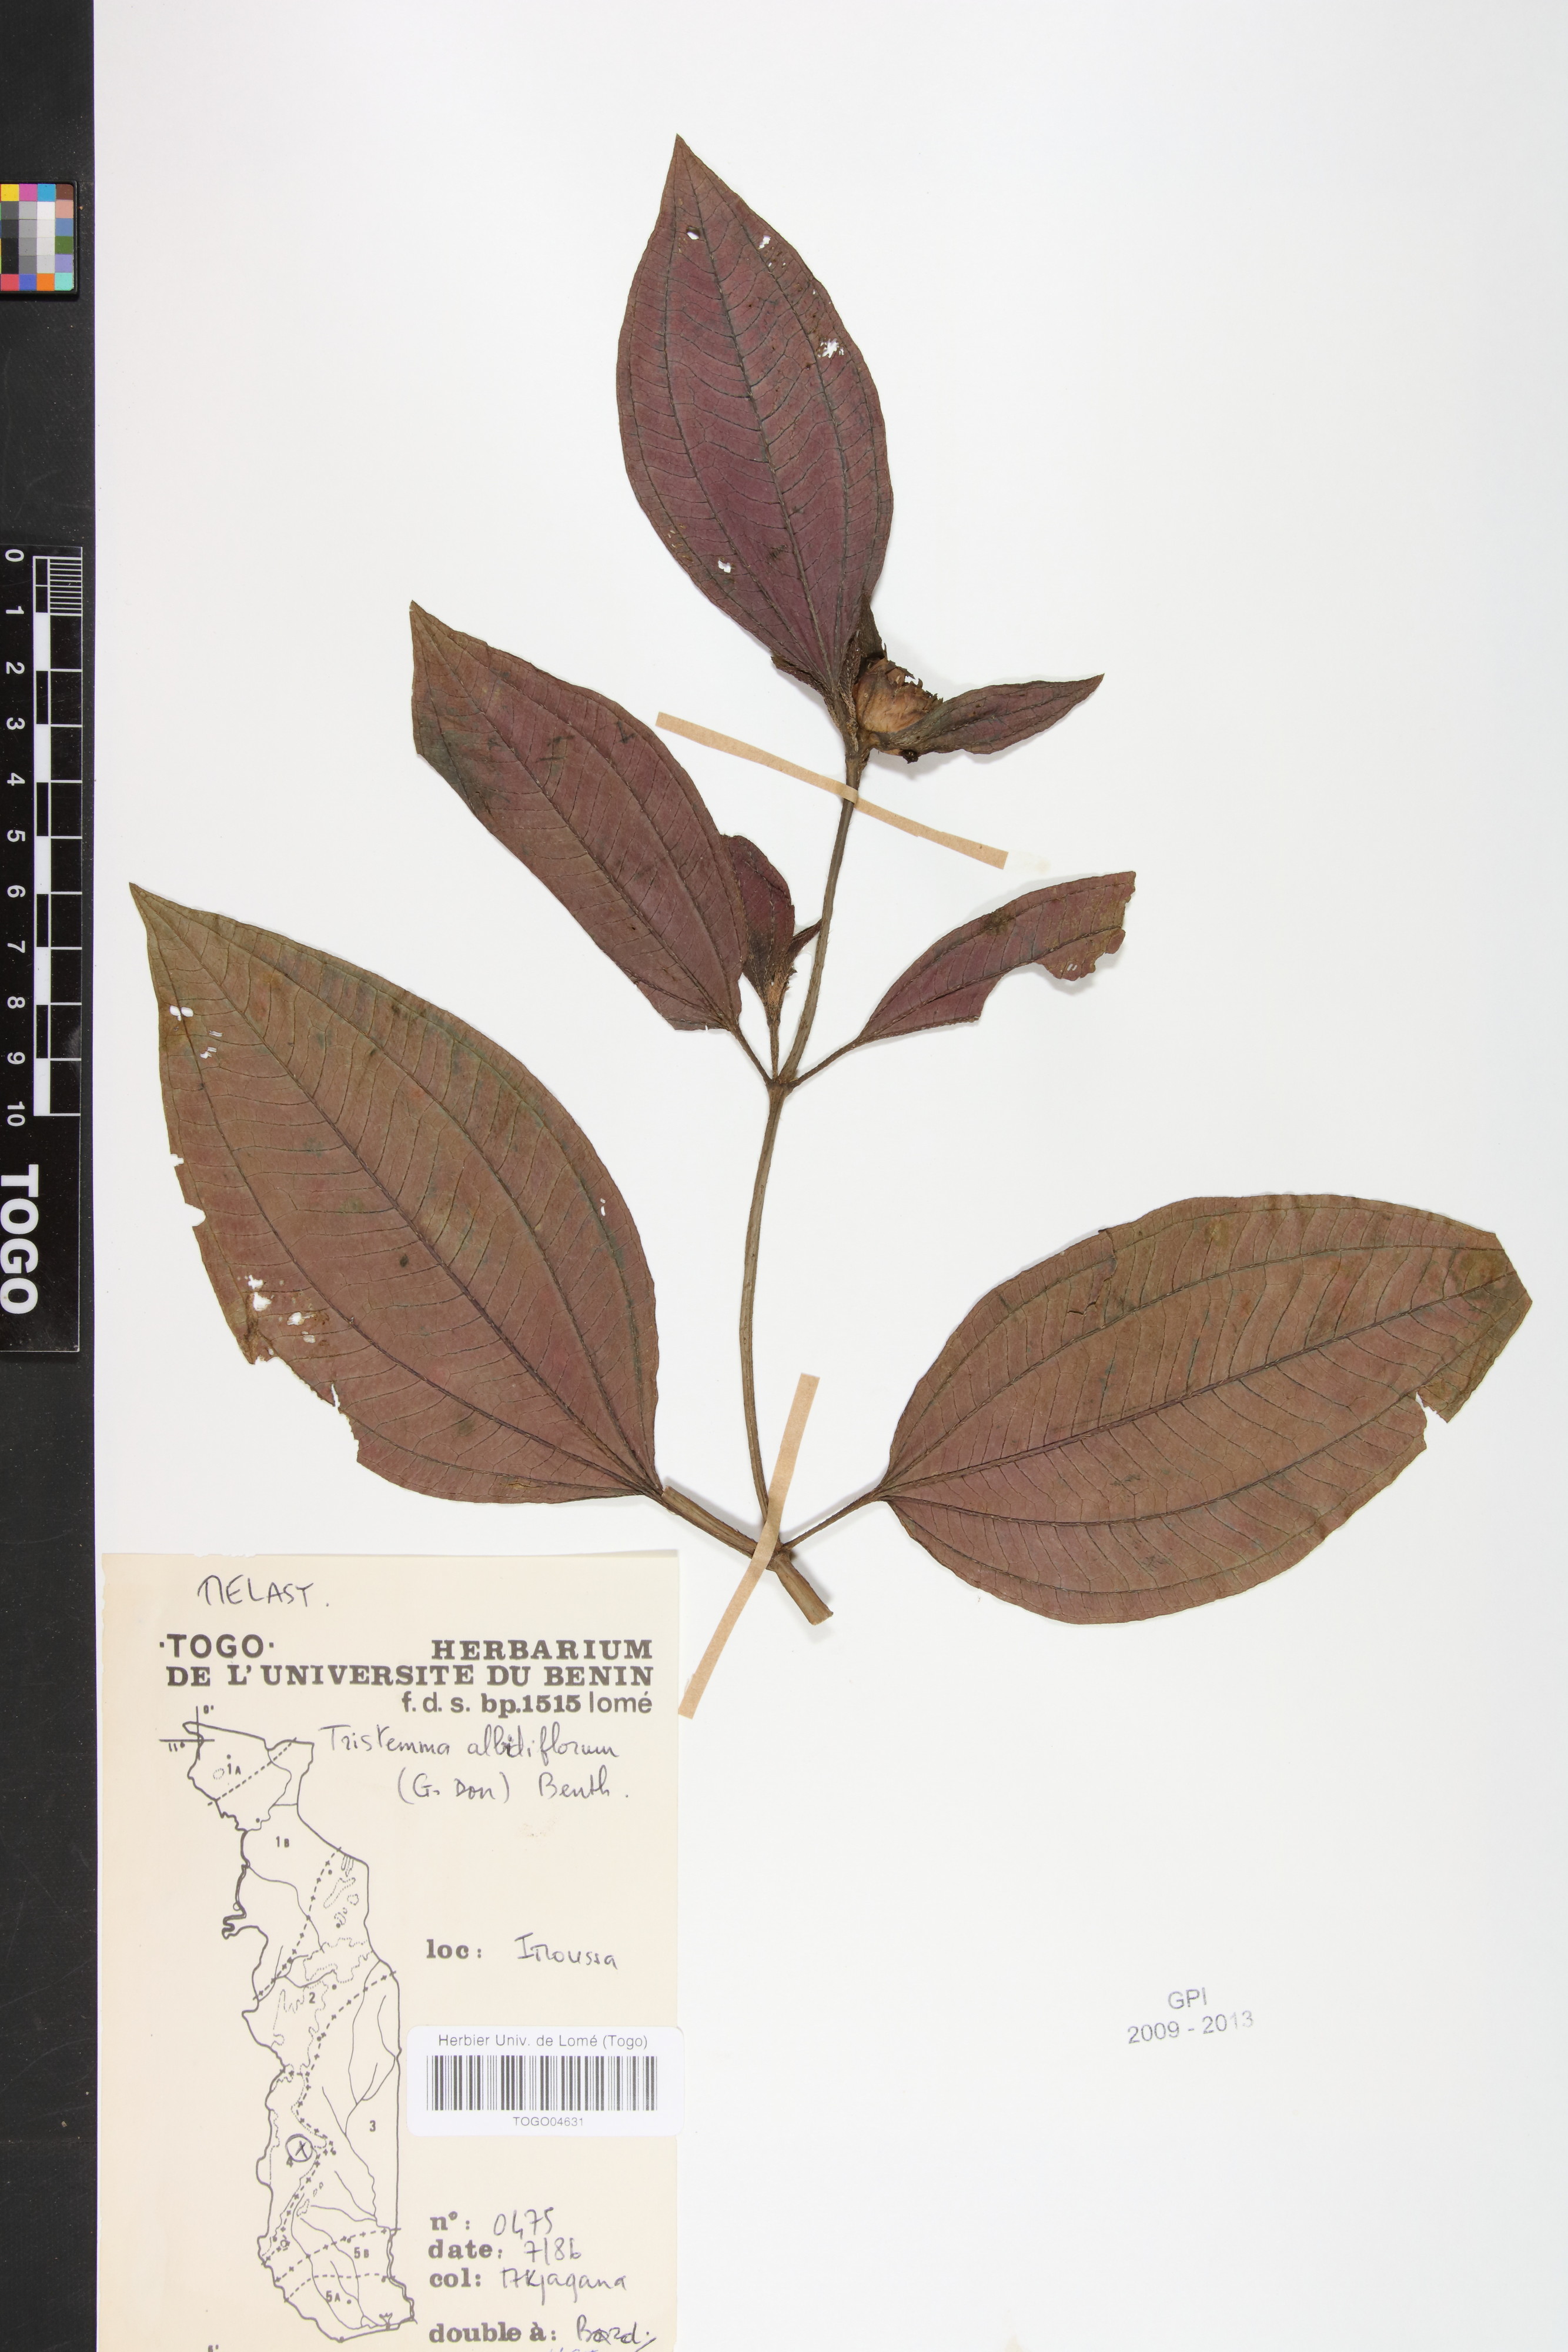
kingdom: Plantae
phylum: Tracheophyta
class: Magnoliopsida
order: Myrtales
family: Melastomataceae
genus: Tristemma
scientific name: Tristemma albiflorum
